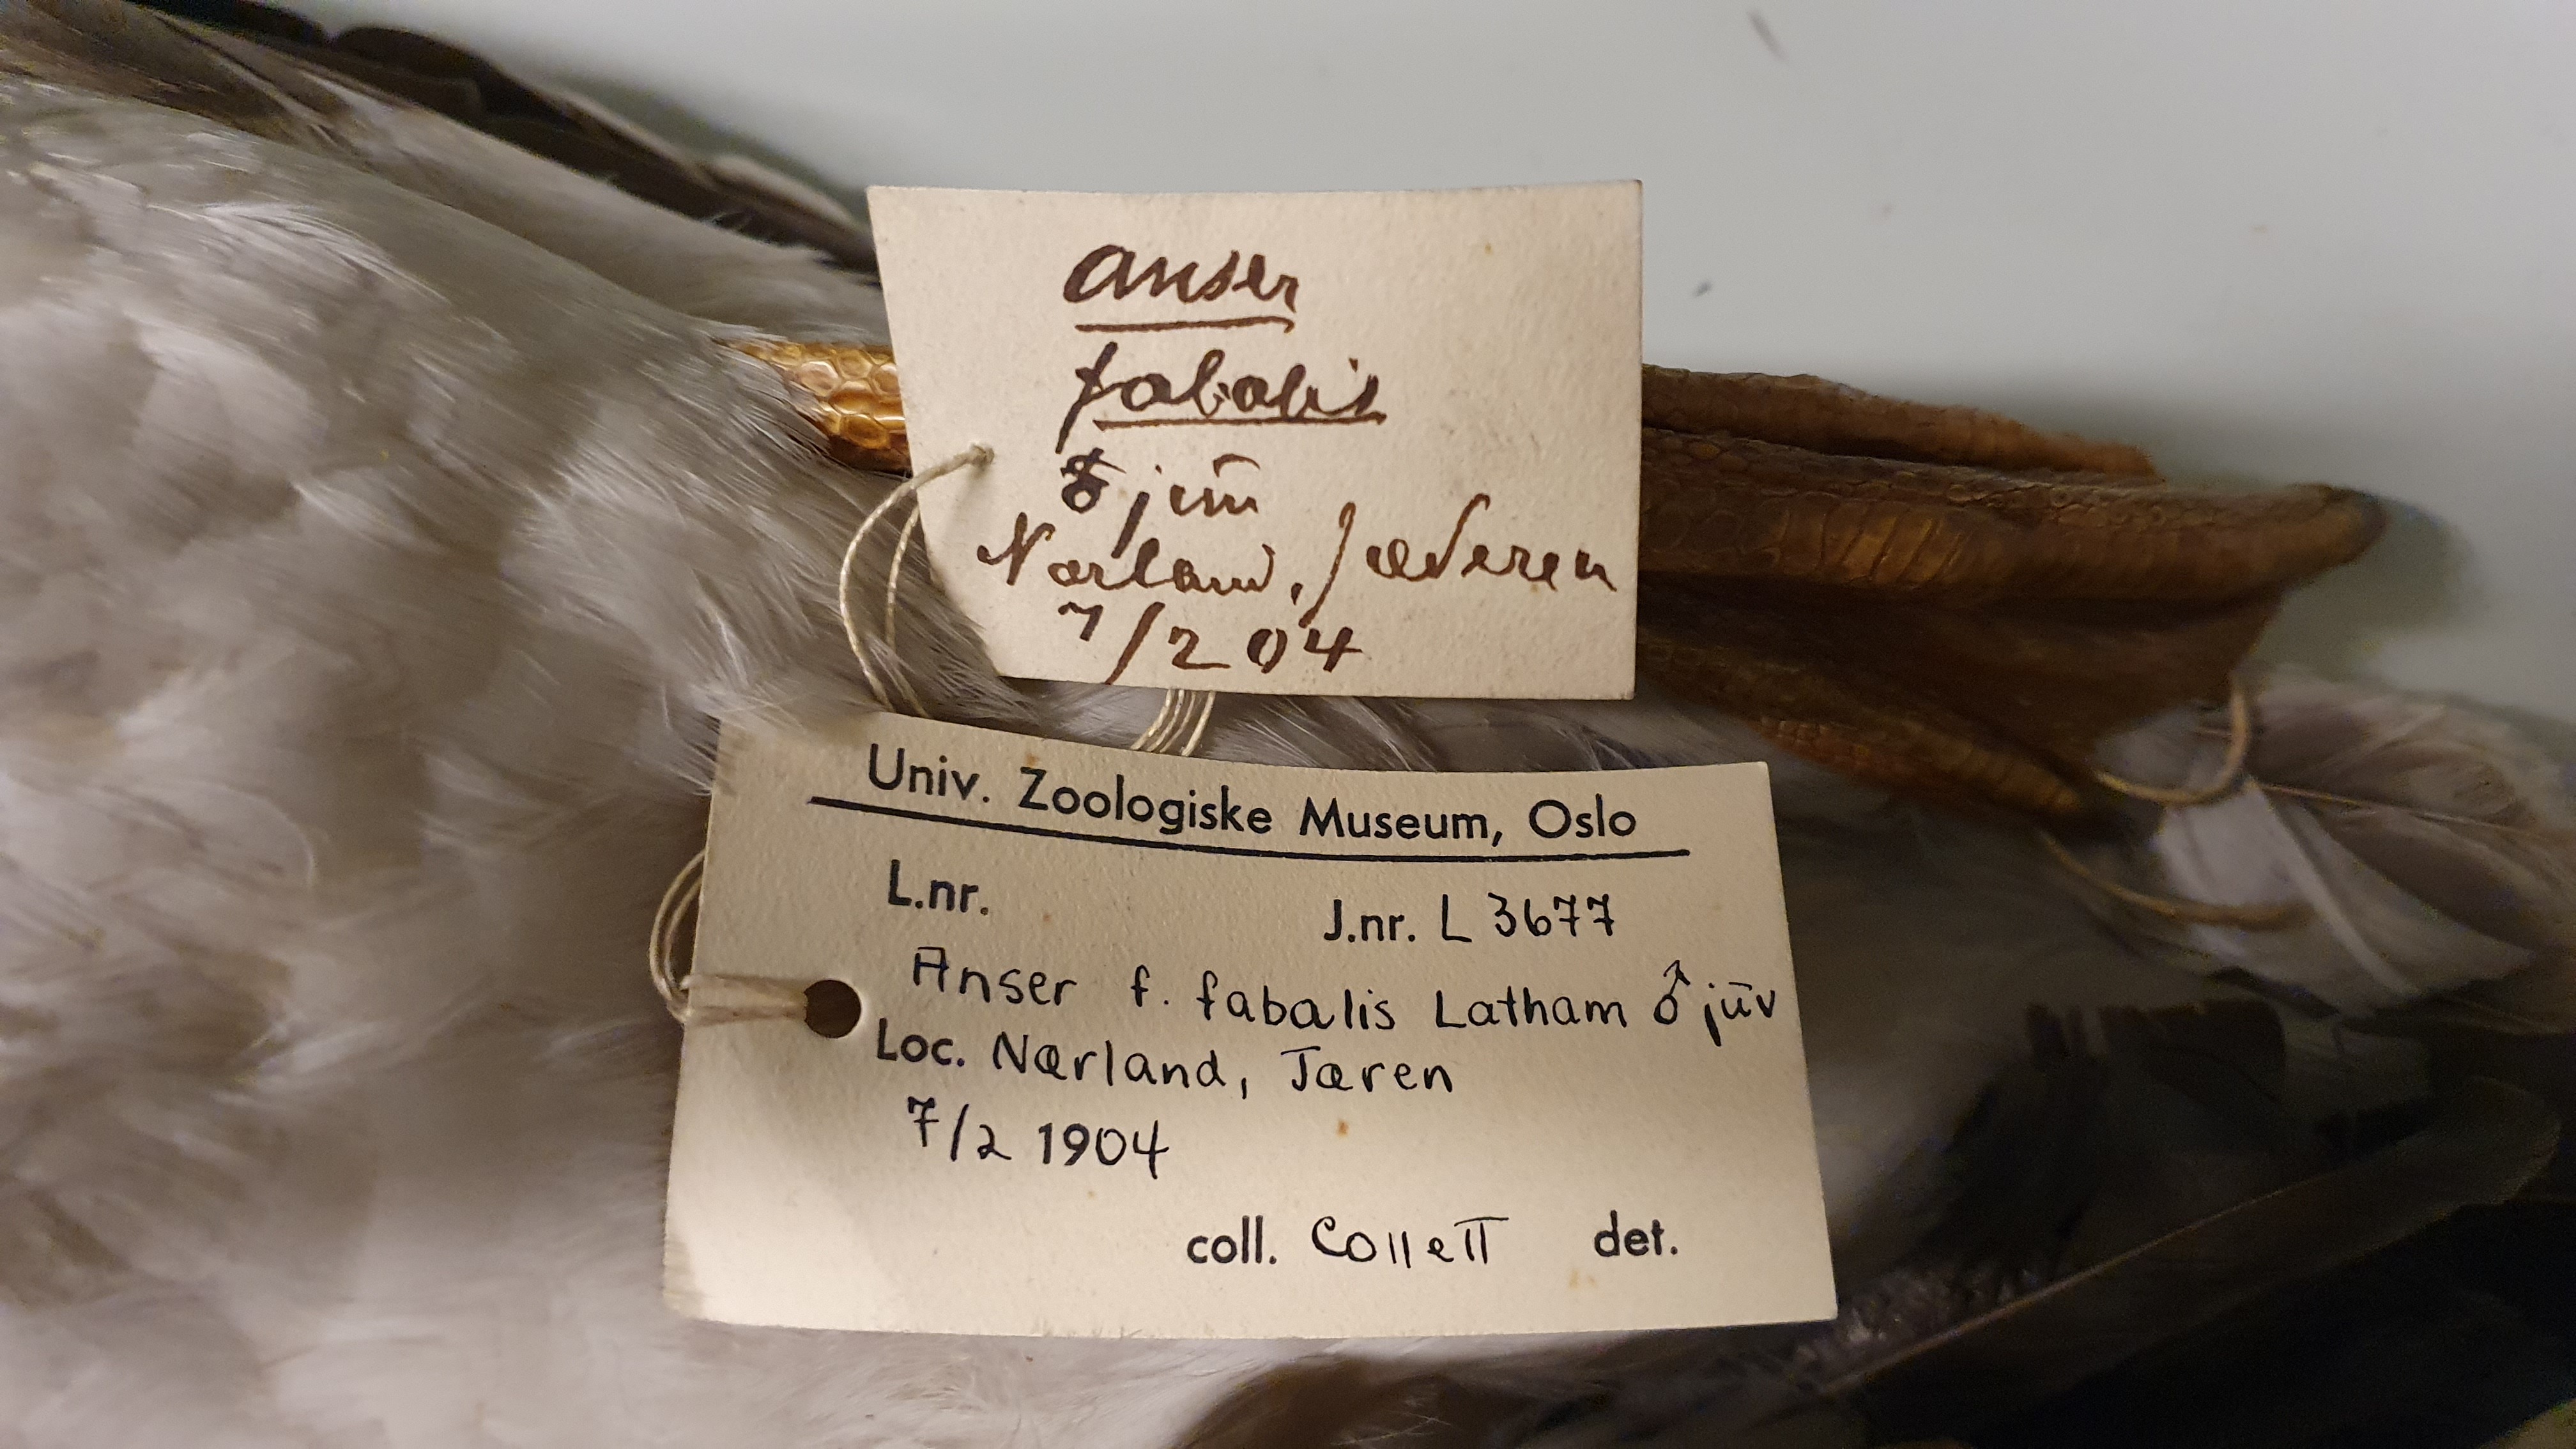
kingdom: Animalia
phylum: Chordata
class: Aves
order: Anseriformes
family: Anatidae
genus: Anser
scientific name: Anser fabalis
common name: Bean goose
